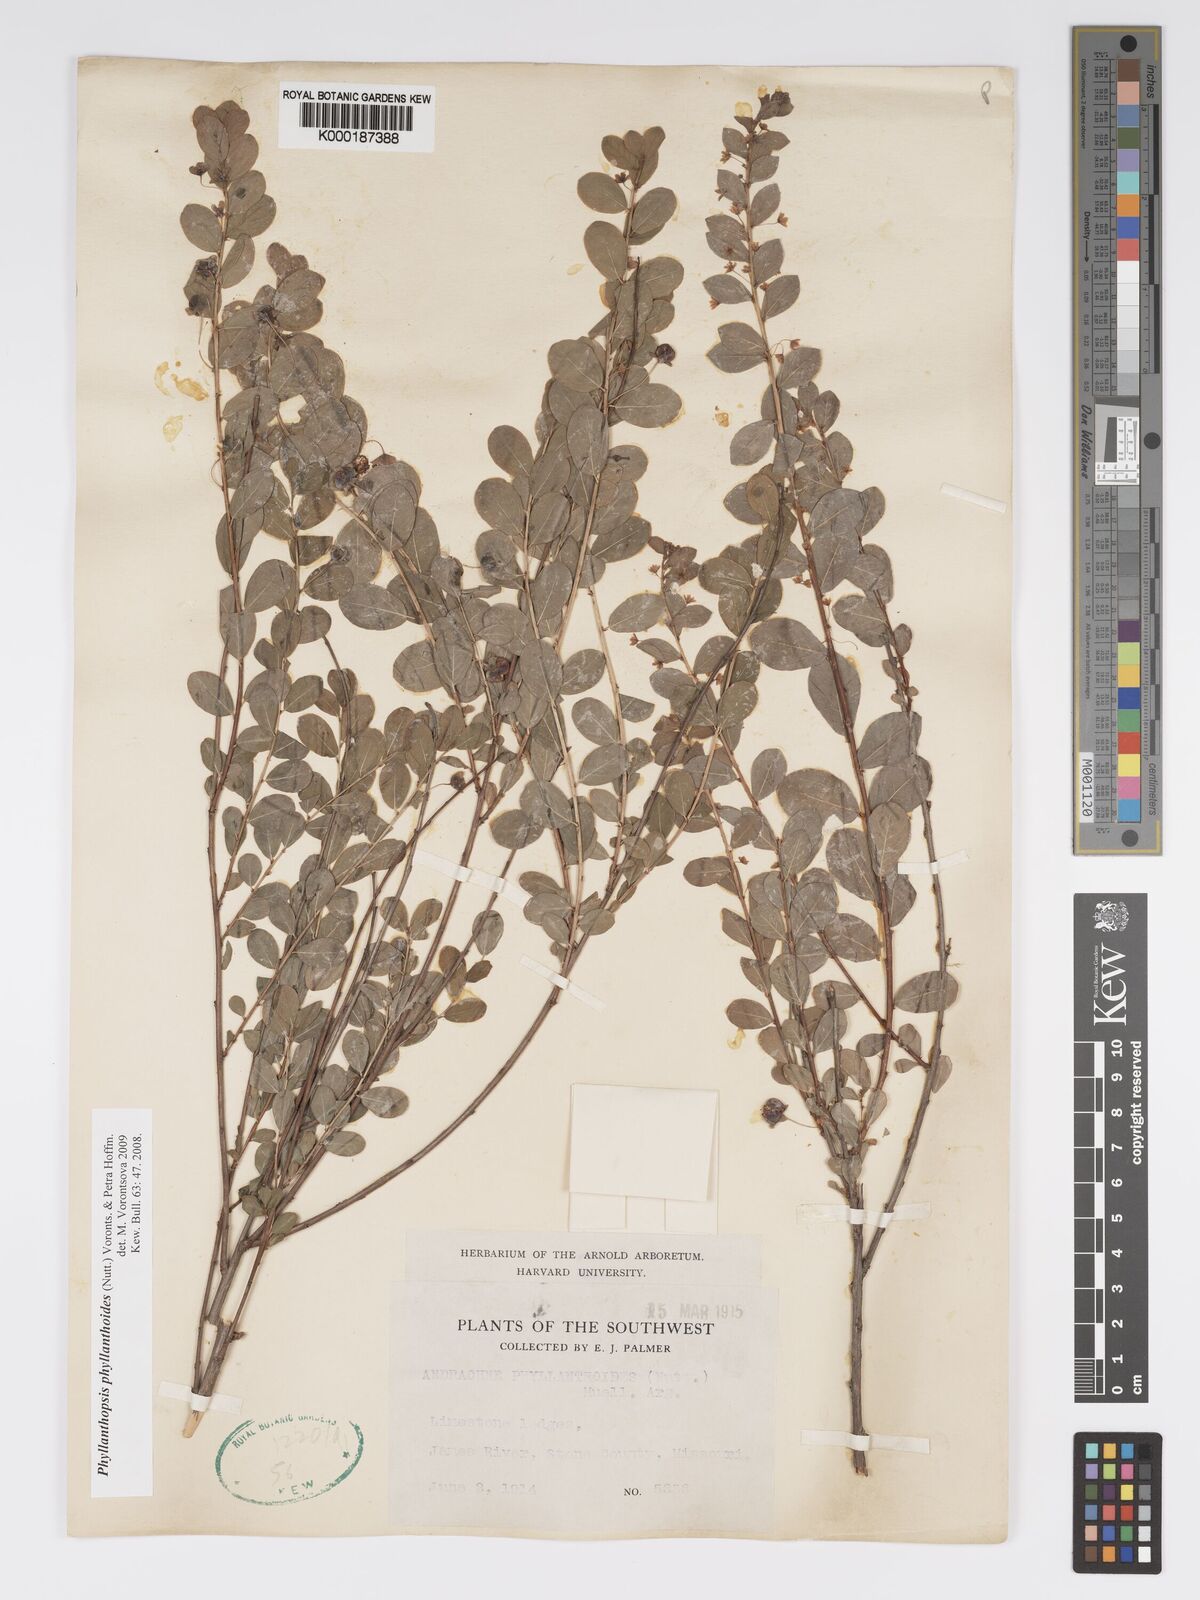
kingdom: Plantae
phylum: Tracheophyta
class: Magnoliopsida
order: Malpighiales
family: Phyllanthaceae
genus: Andrachne
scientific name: Andrachne
